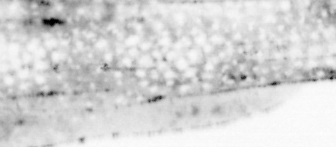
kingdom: Animalia
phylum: Chordata
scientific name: Chordata
